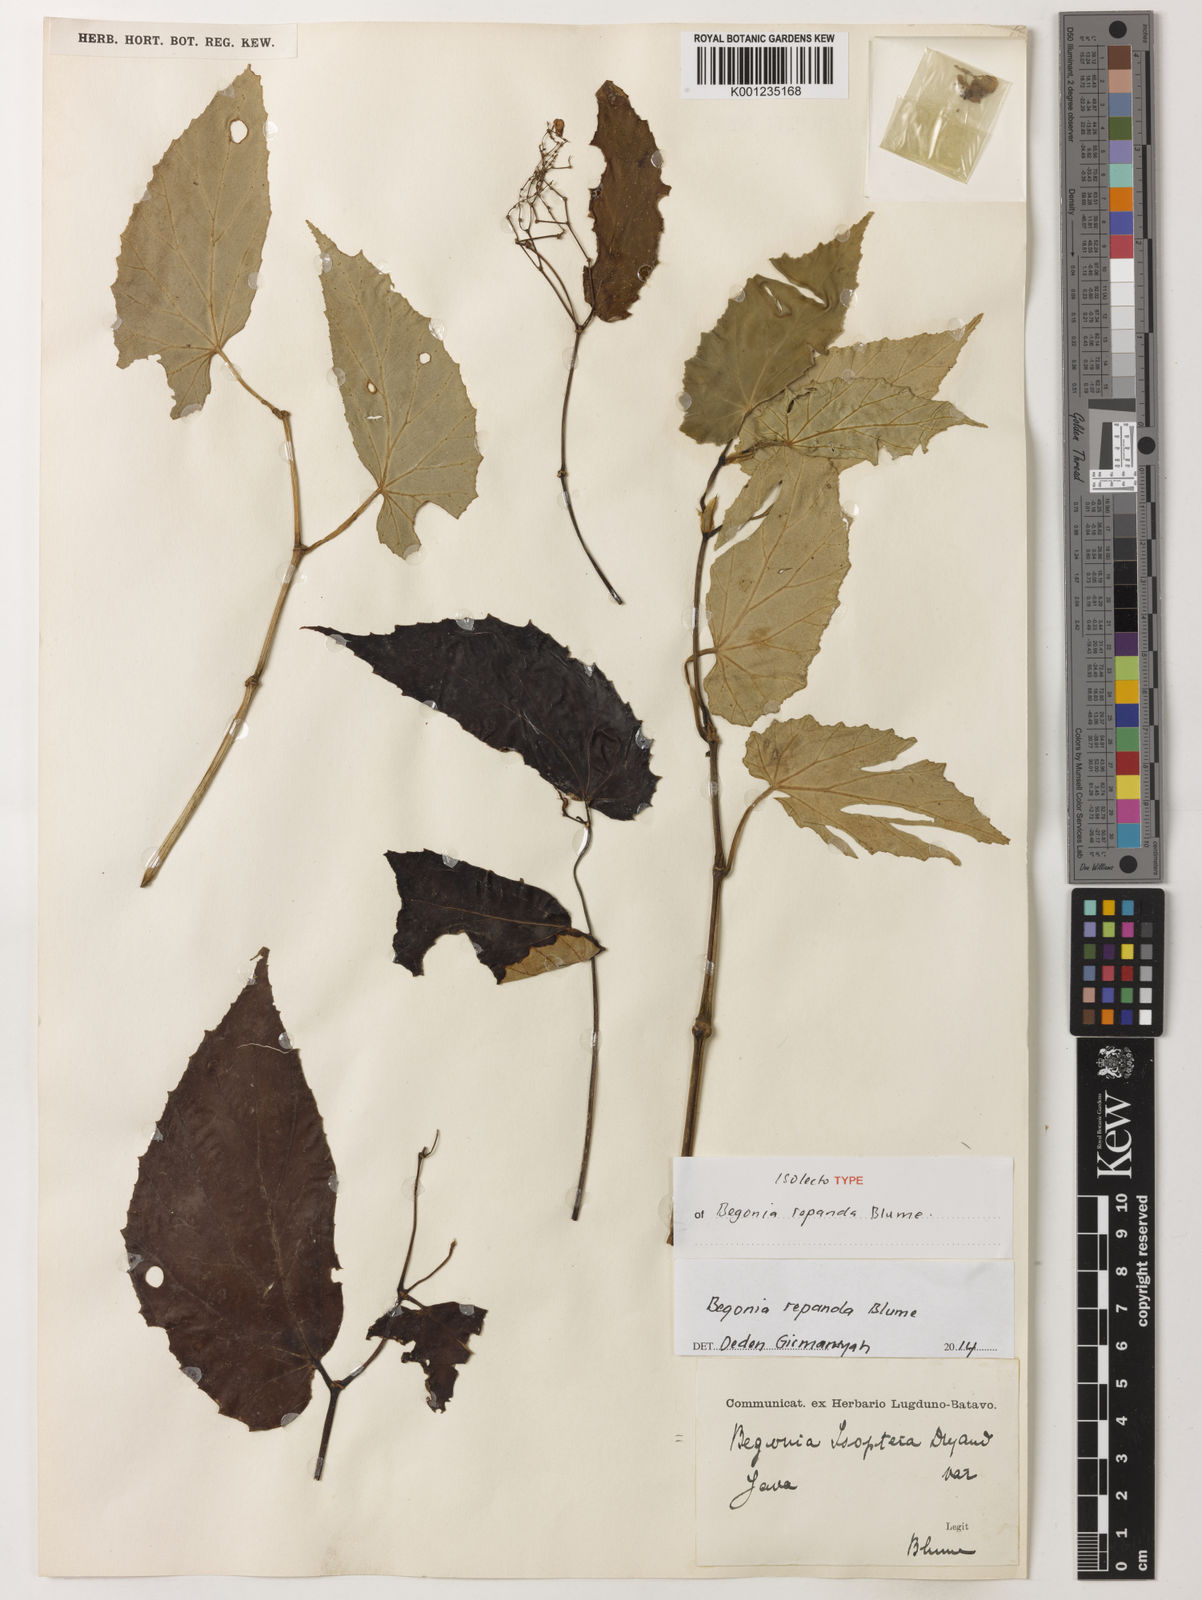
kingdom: Plantae
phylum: Tracheophyta
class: Magnoliopsida
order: Cucurbitales
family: Begoniaceae
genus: Begonia
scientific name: Begonia isoptera
